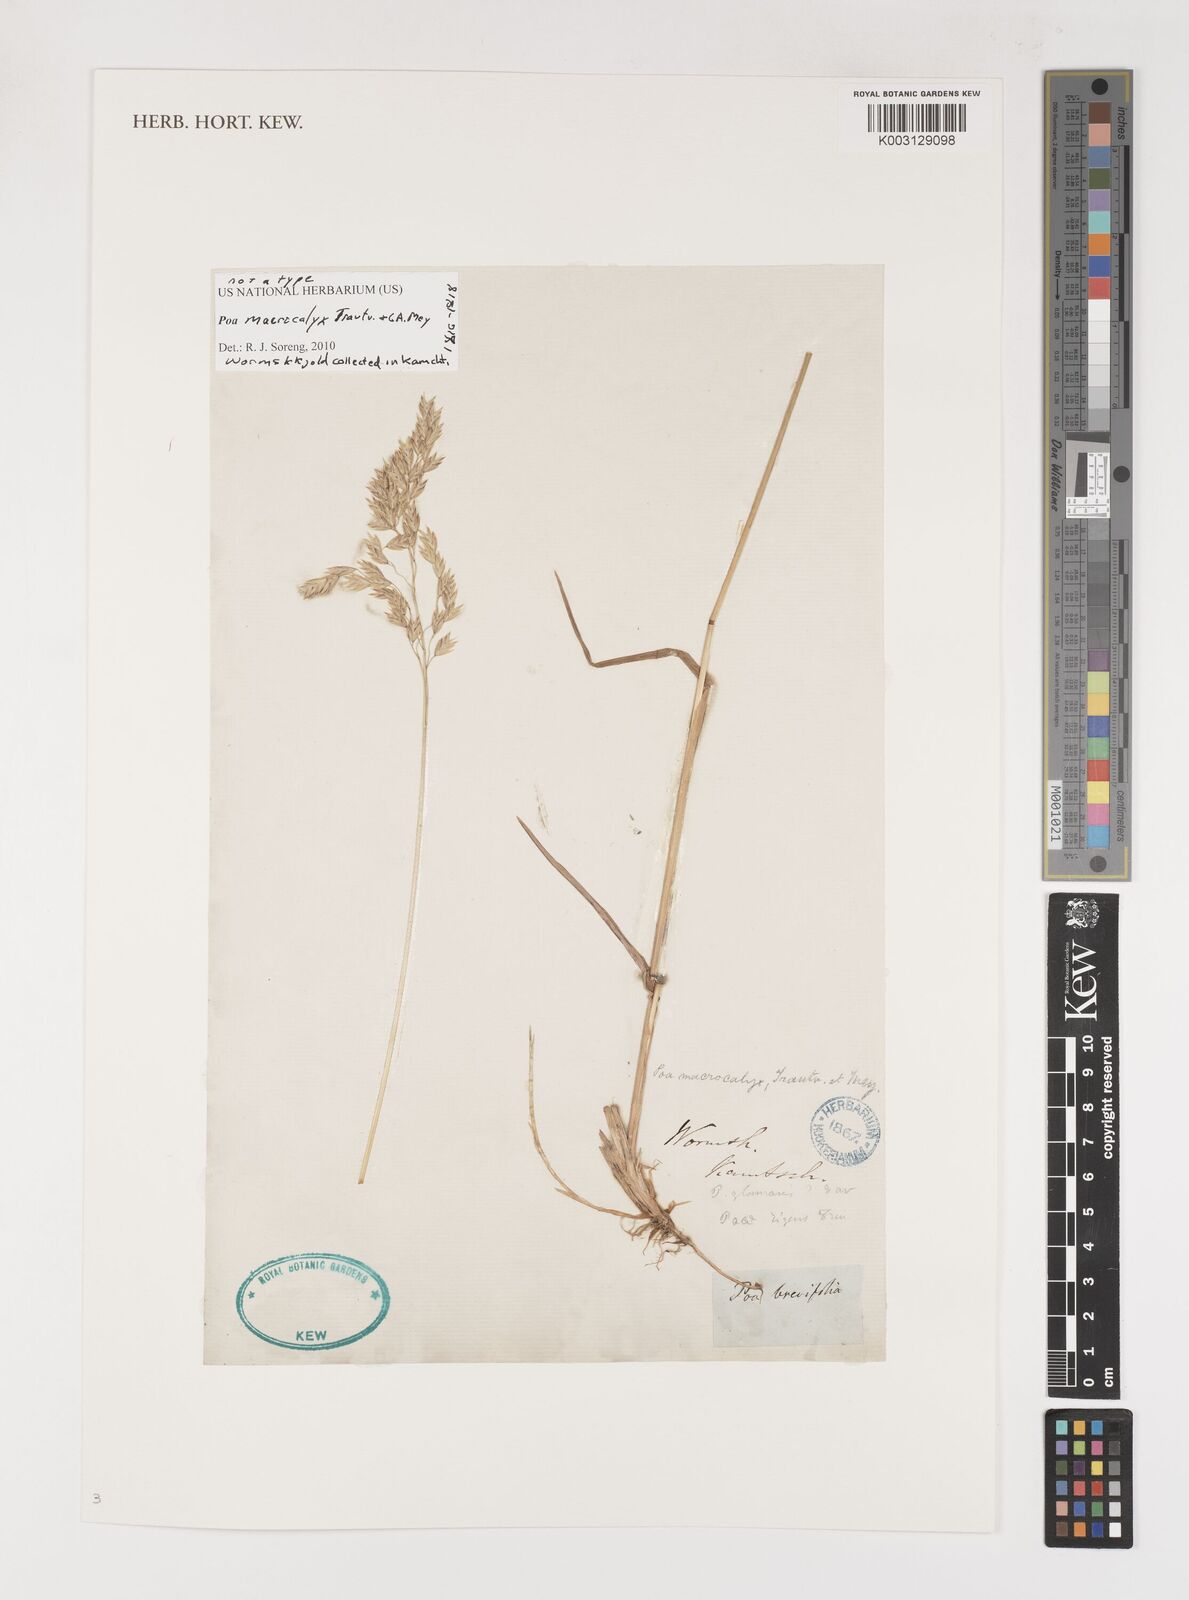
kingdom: Plantae
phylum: Tracheophyta
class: Liliopsida
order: Poales
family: Poaceae
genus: Poa
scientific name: Poa macrocalyx
